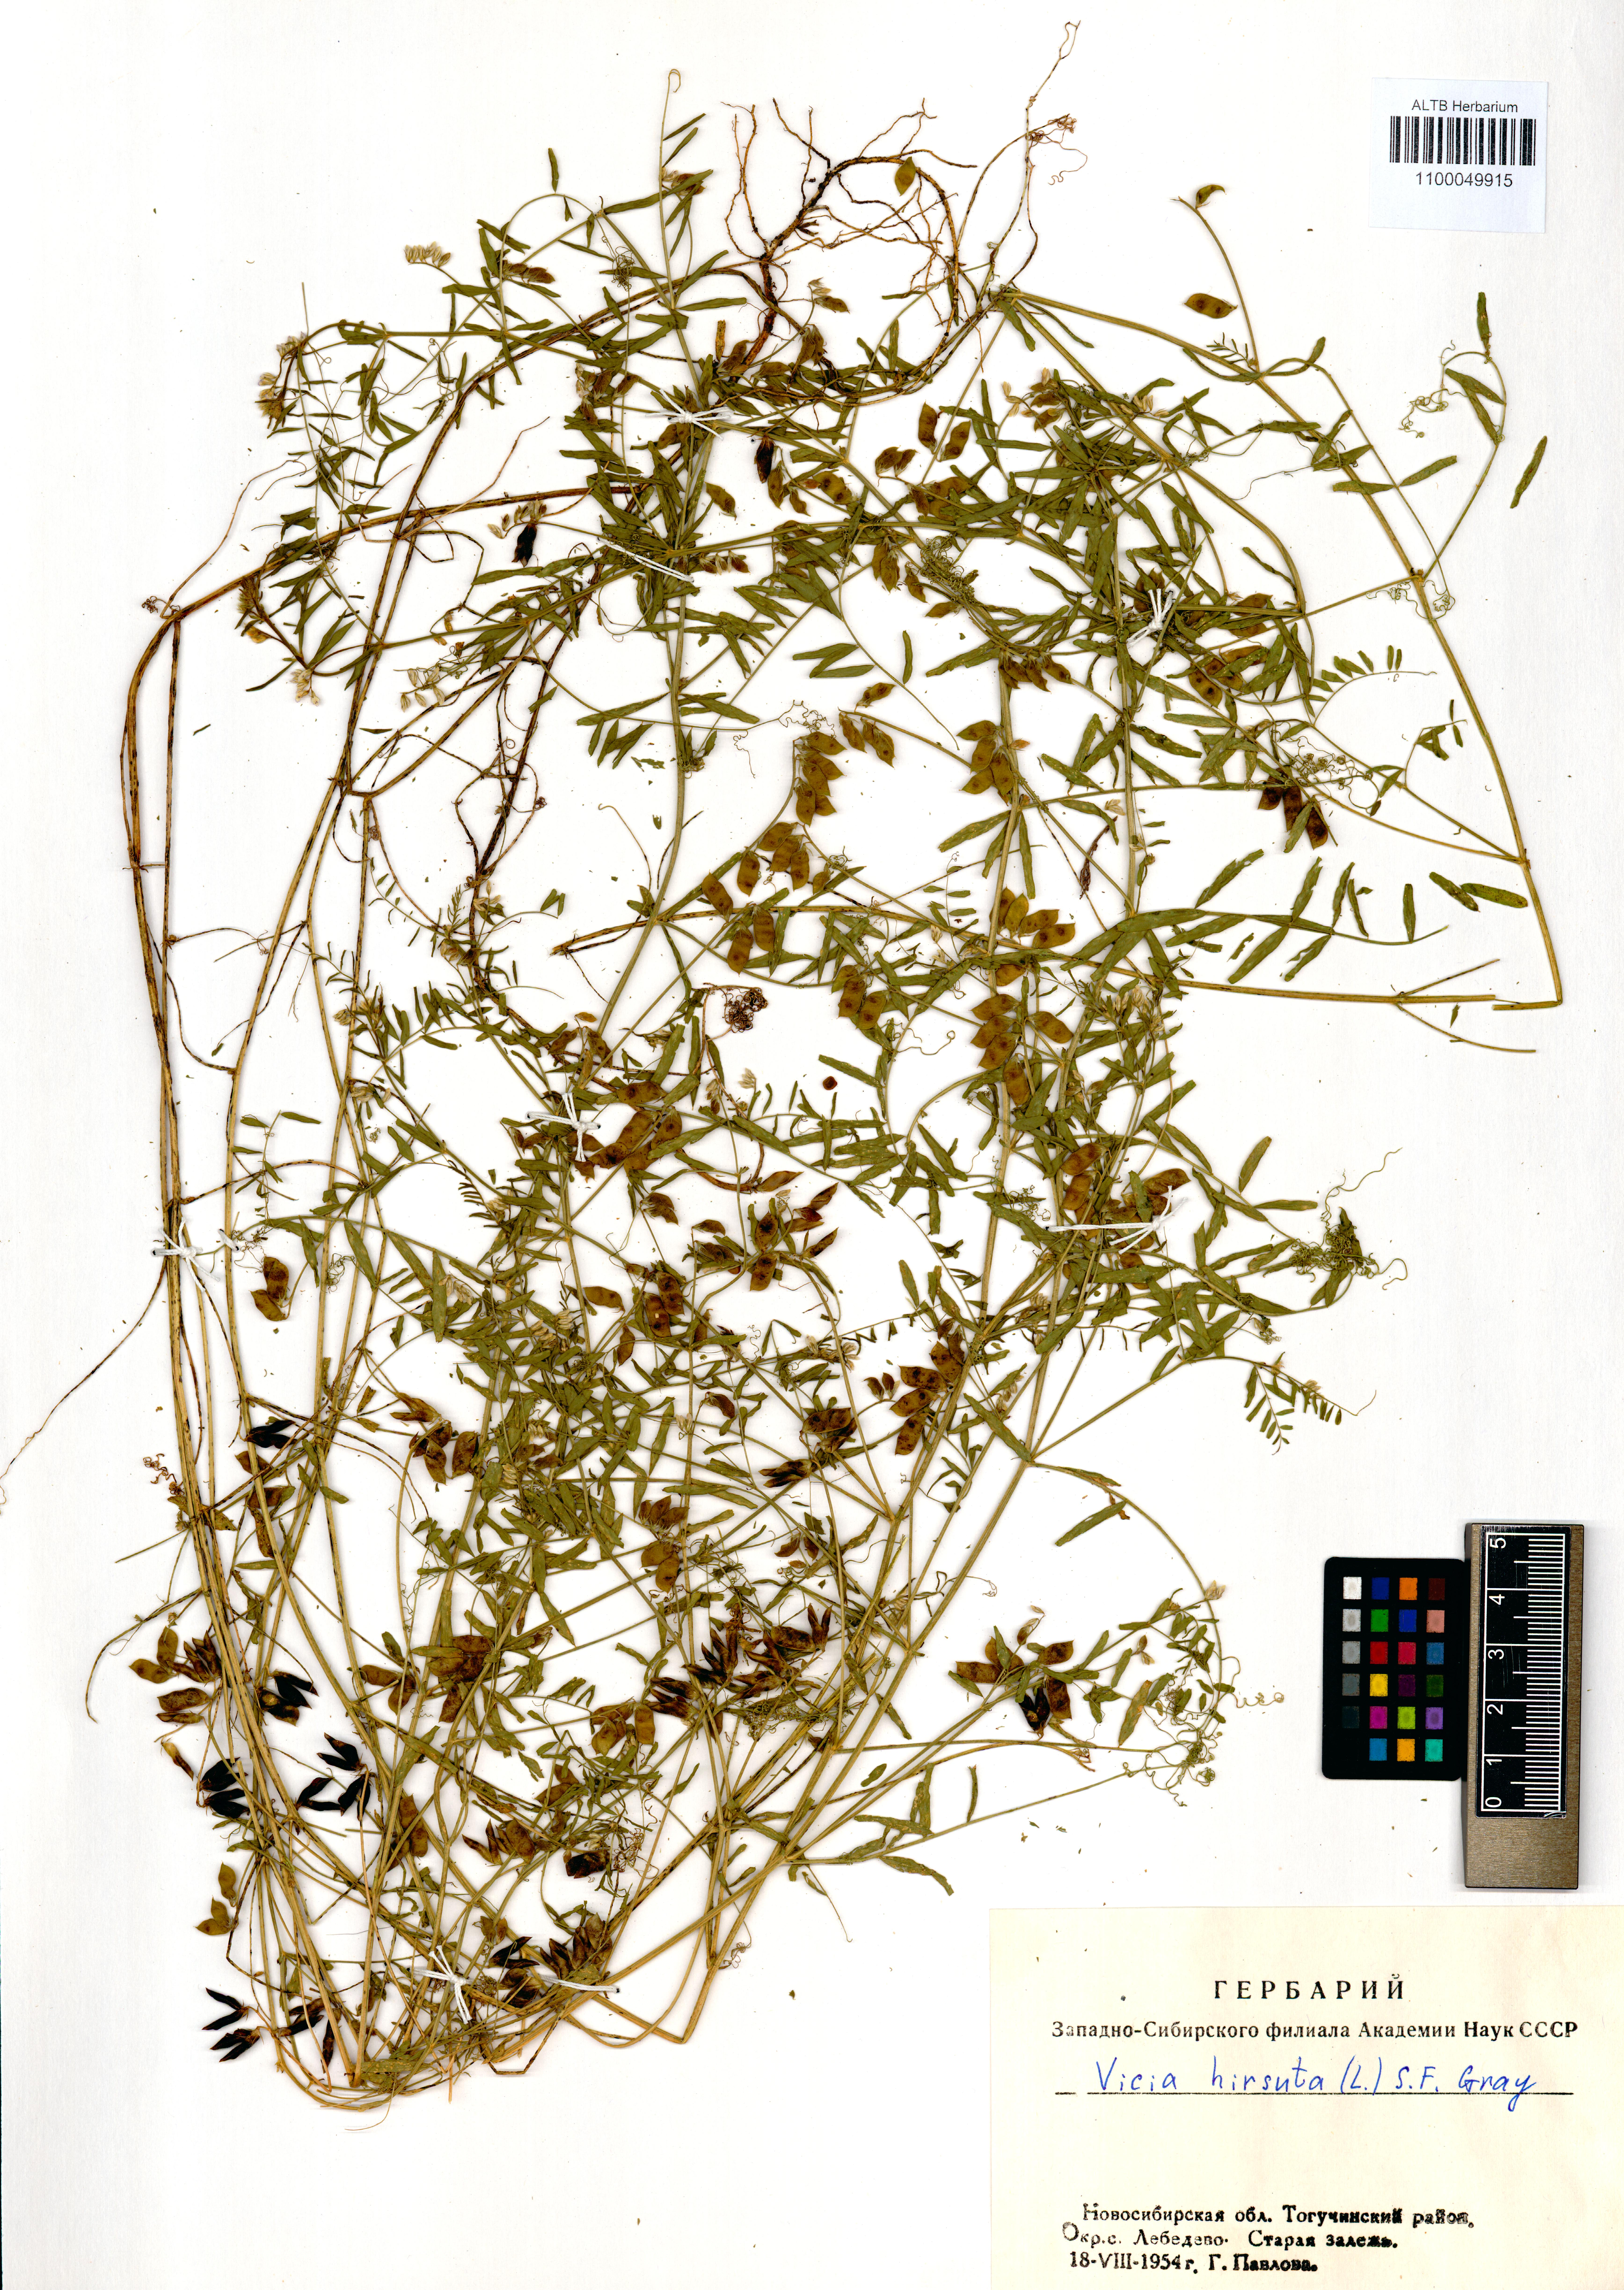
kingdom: Plantae
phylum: Tracheophyta
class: Magnoliopsida
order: Fabales
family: Fabaceae
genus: Vicia
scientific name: Vicia hirsuta
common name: Tiny vetch
